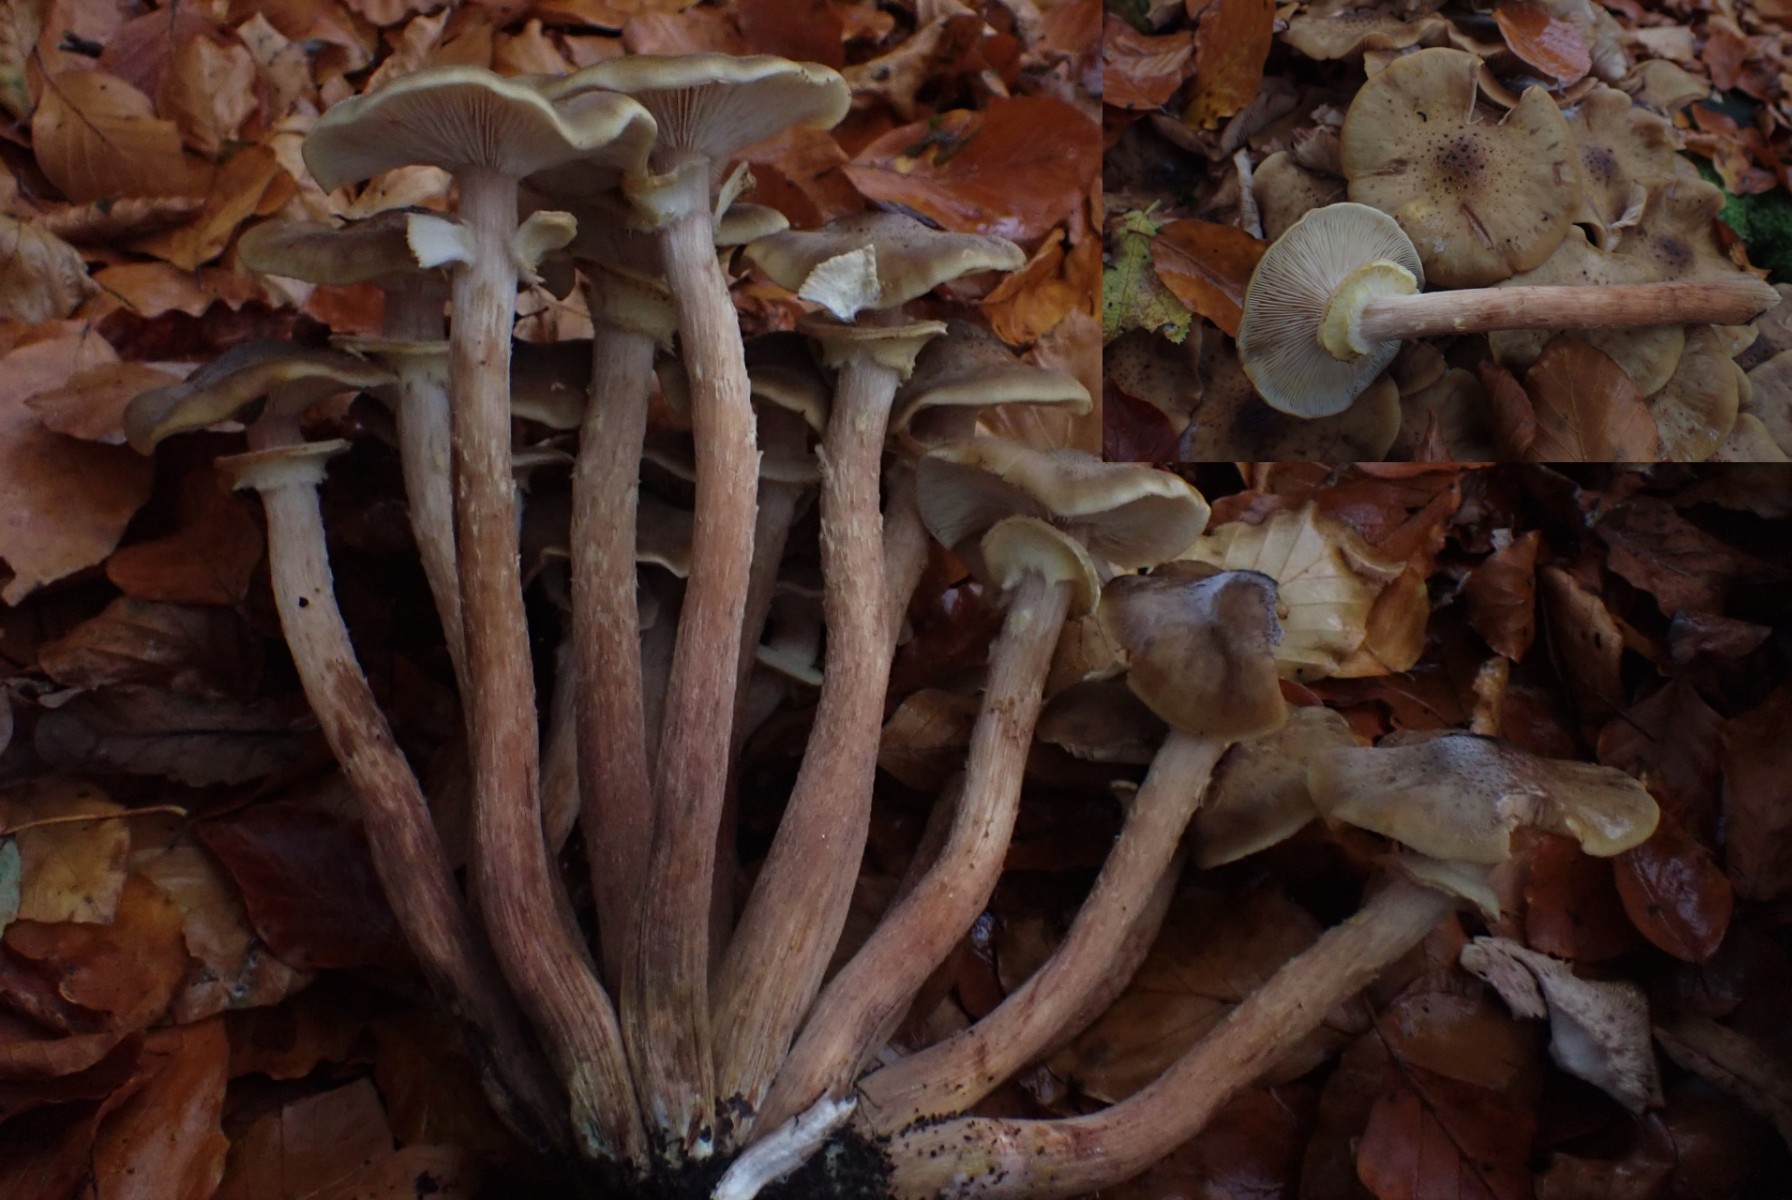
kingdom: Fungi
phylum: Basidiomycota
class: Agaricomycetes
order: Agaricales
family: Physalacriaceae
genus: Armillaria
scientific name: Armillaria mellea
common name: ægte honningsvamp
